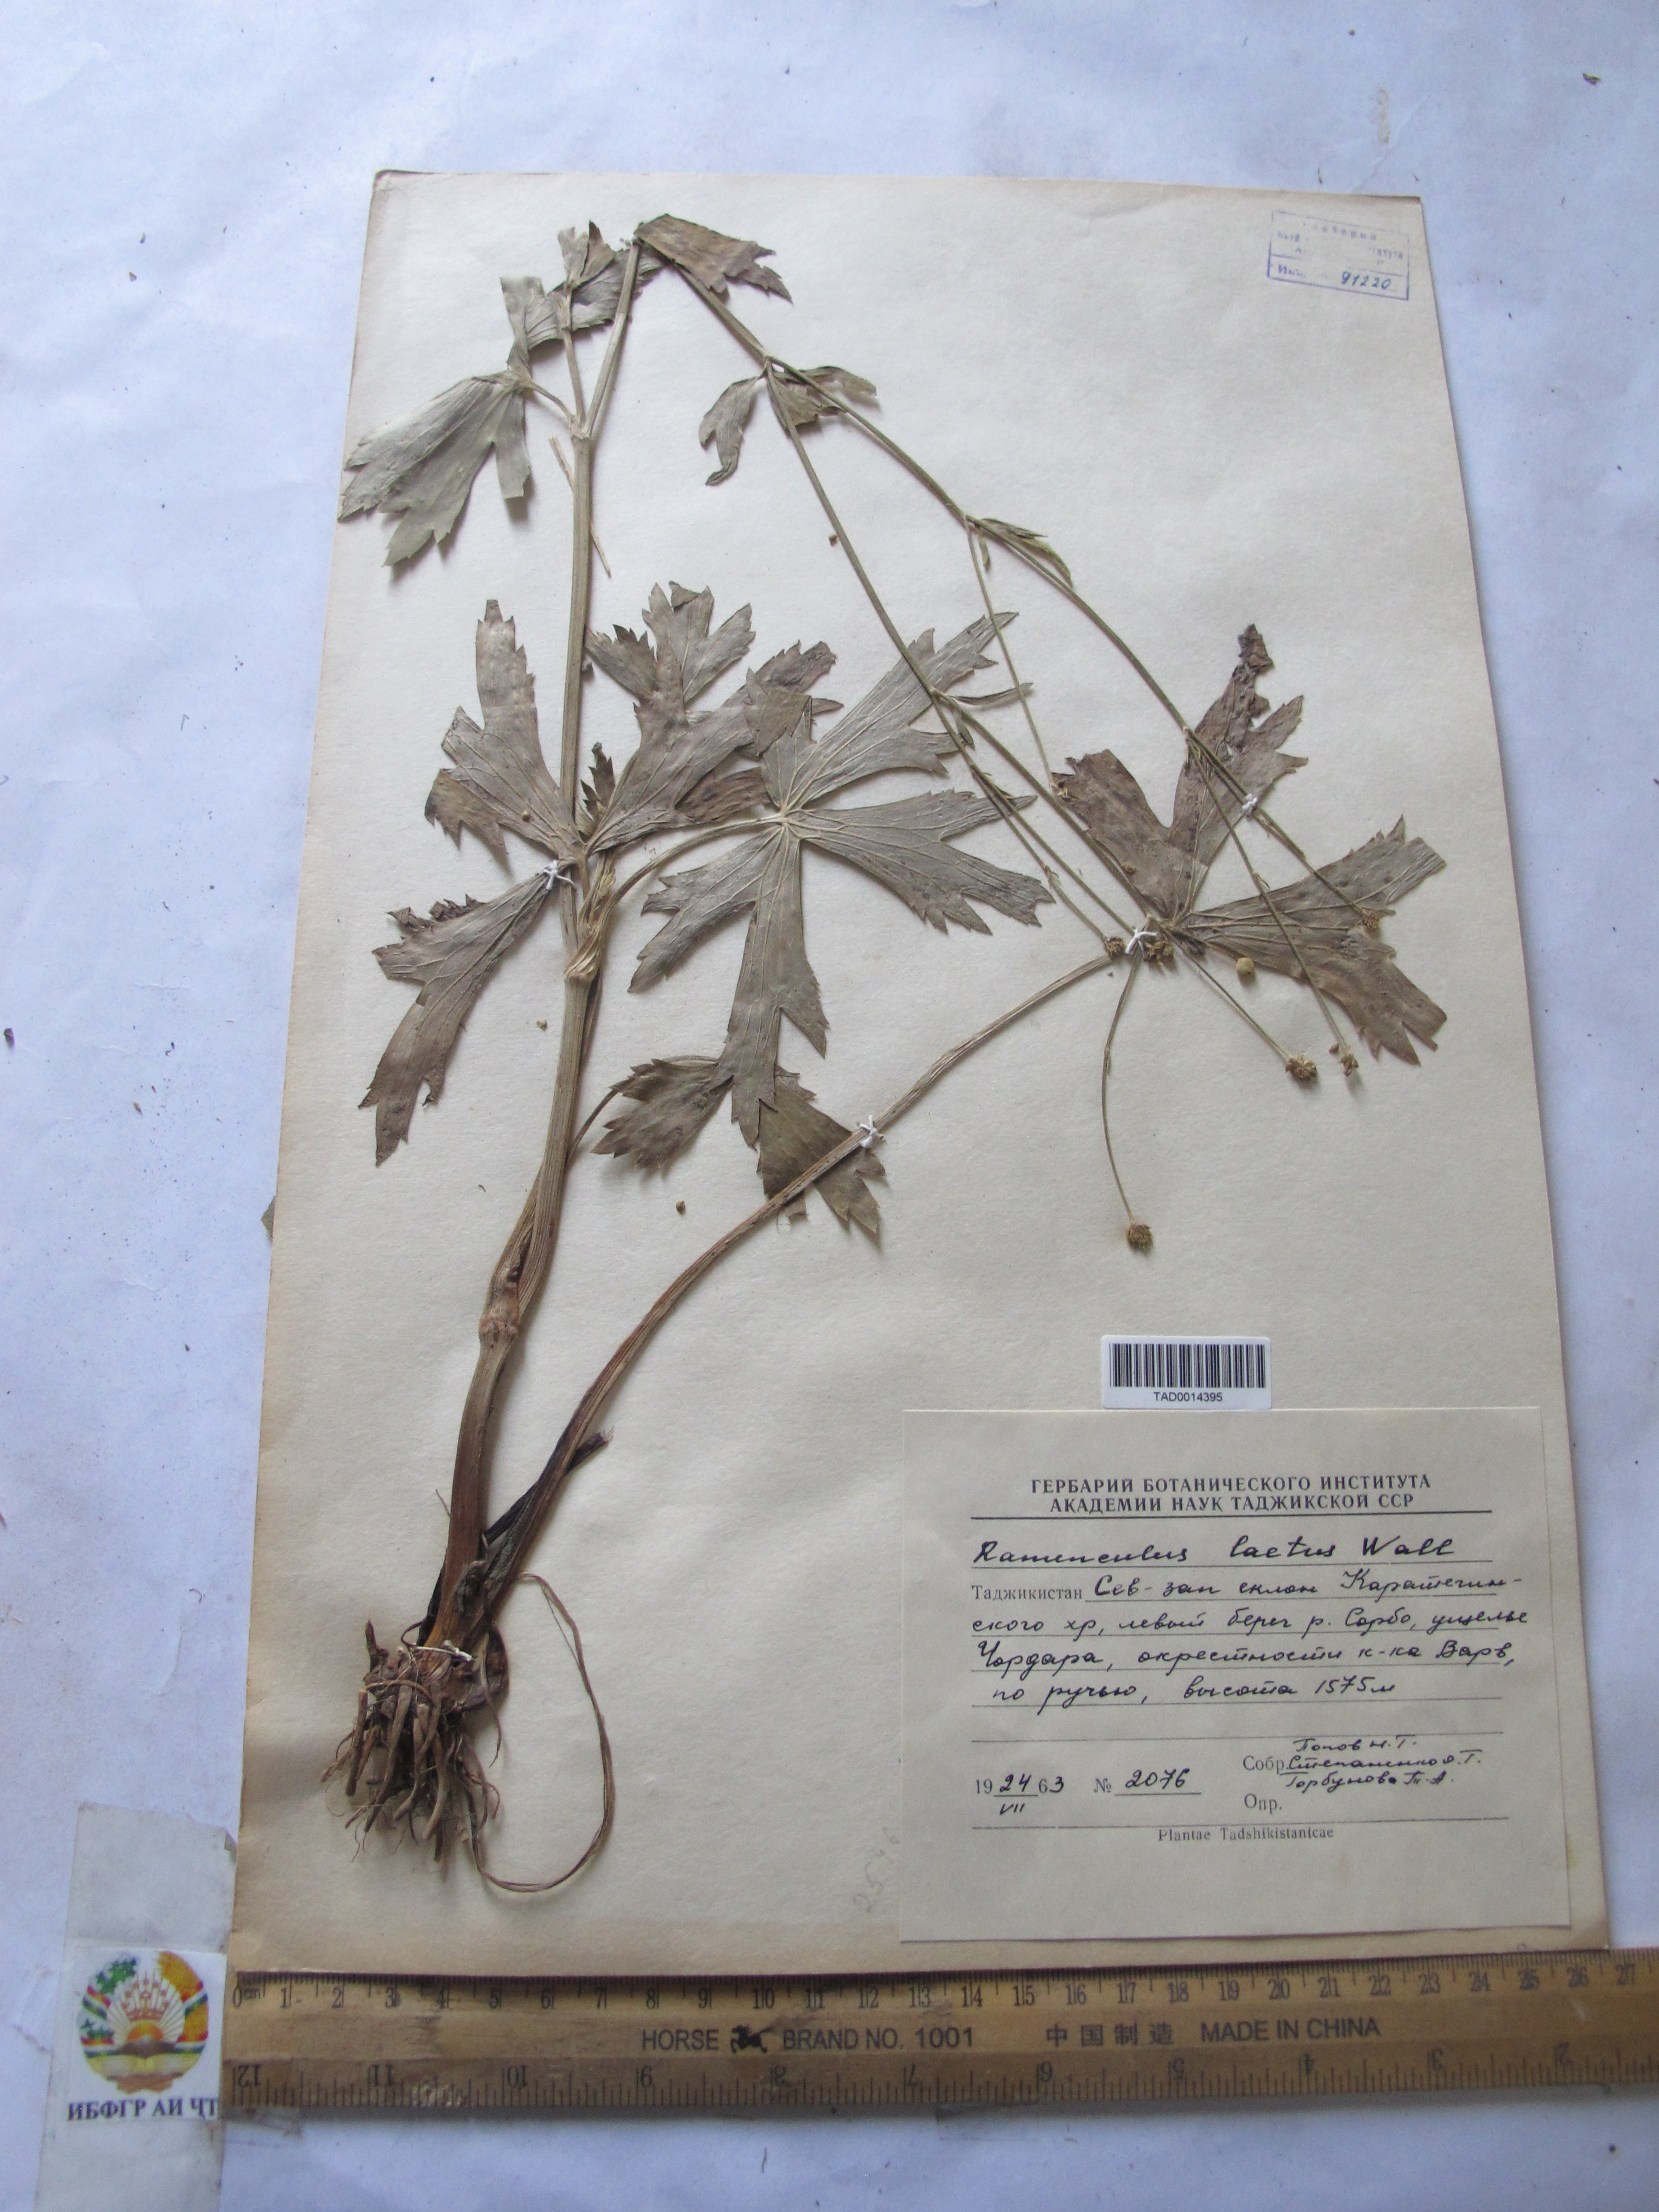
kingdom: Plantae
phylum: Tracheophyta
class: Magnoliopsida
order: Ranunculales
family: Ranunculaceae
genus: Ranunculus
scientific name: Ranunculus distans
